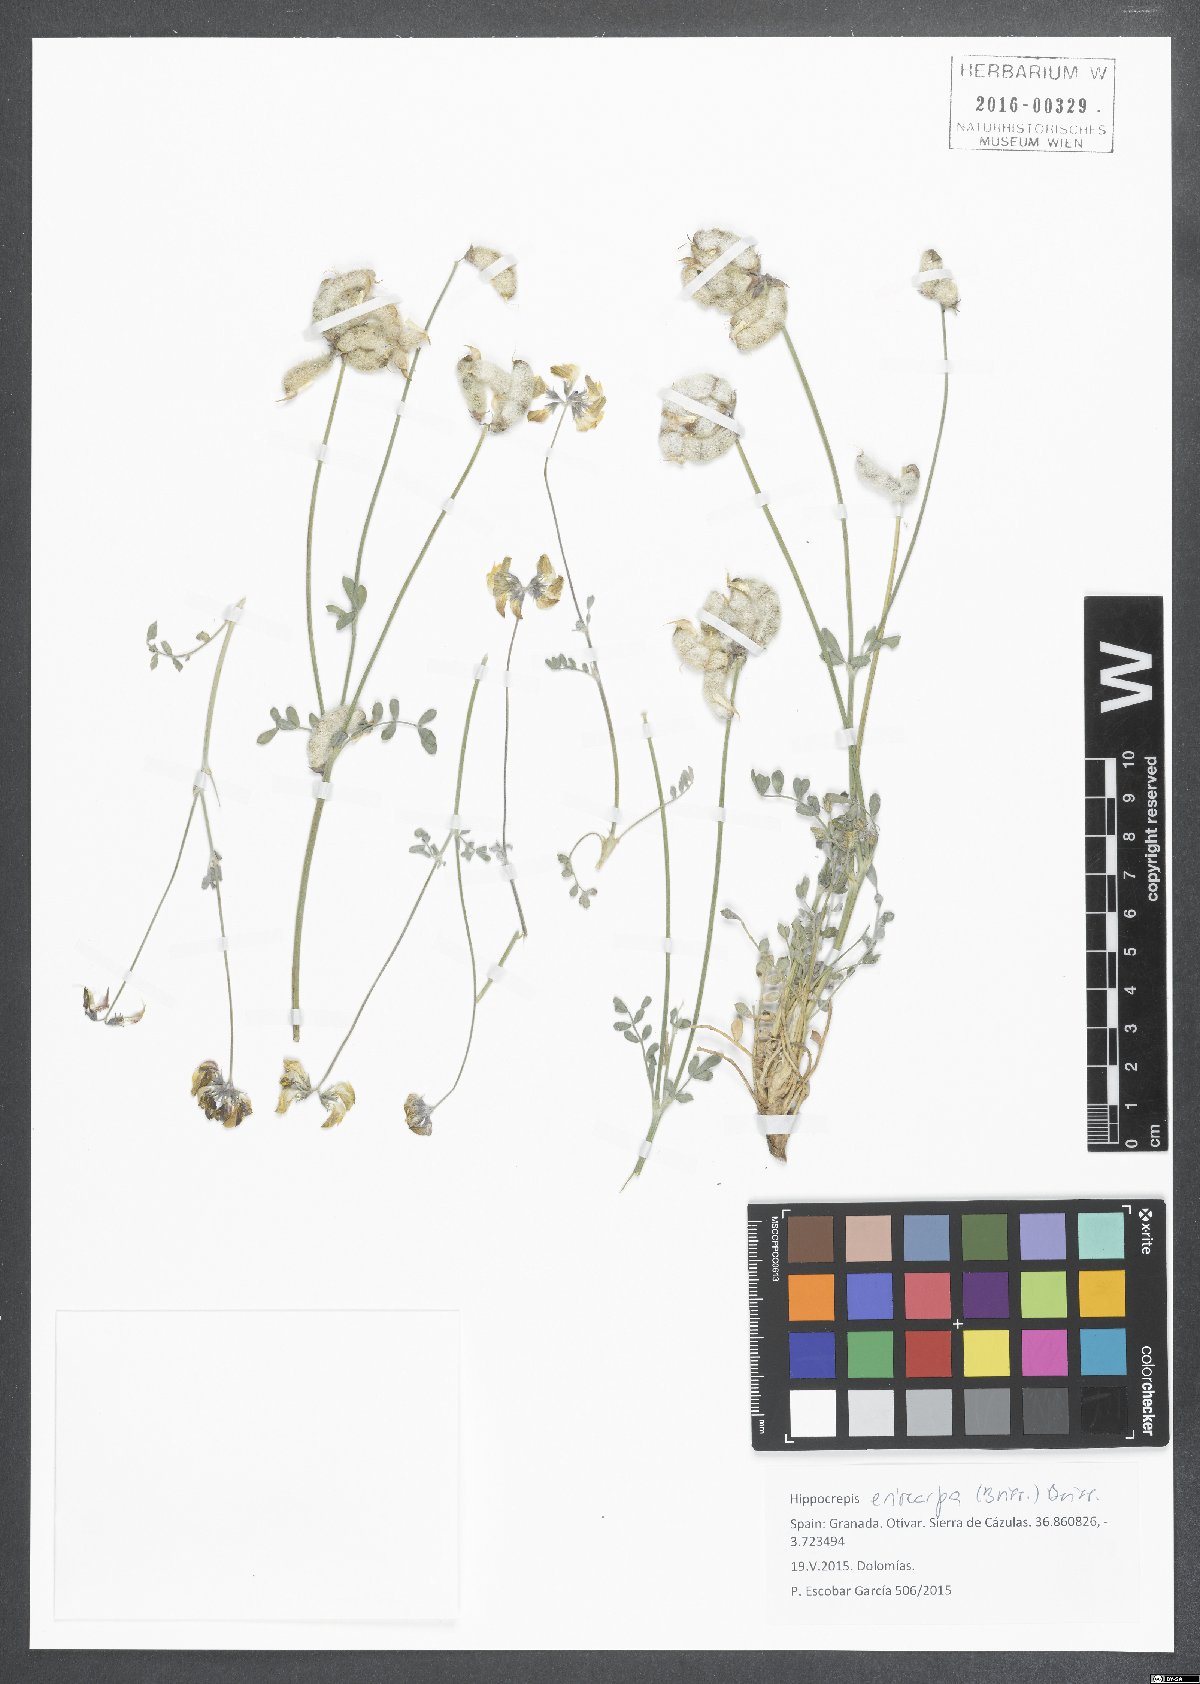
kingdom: Plantae
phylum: Tracheophyta
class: Magnoliopsida
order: Fabales
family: Fabaceae
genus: Hippocrepis
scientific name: Hippocrepis eriocarpa
